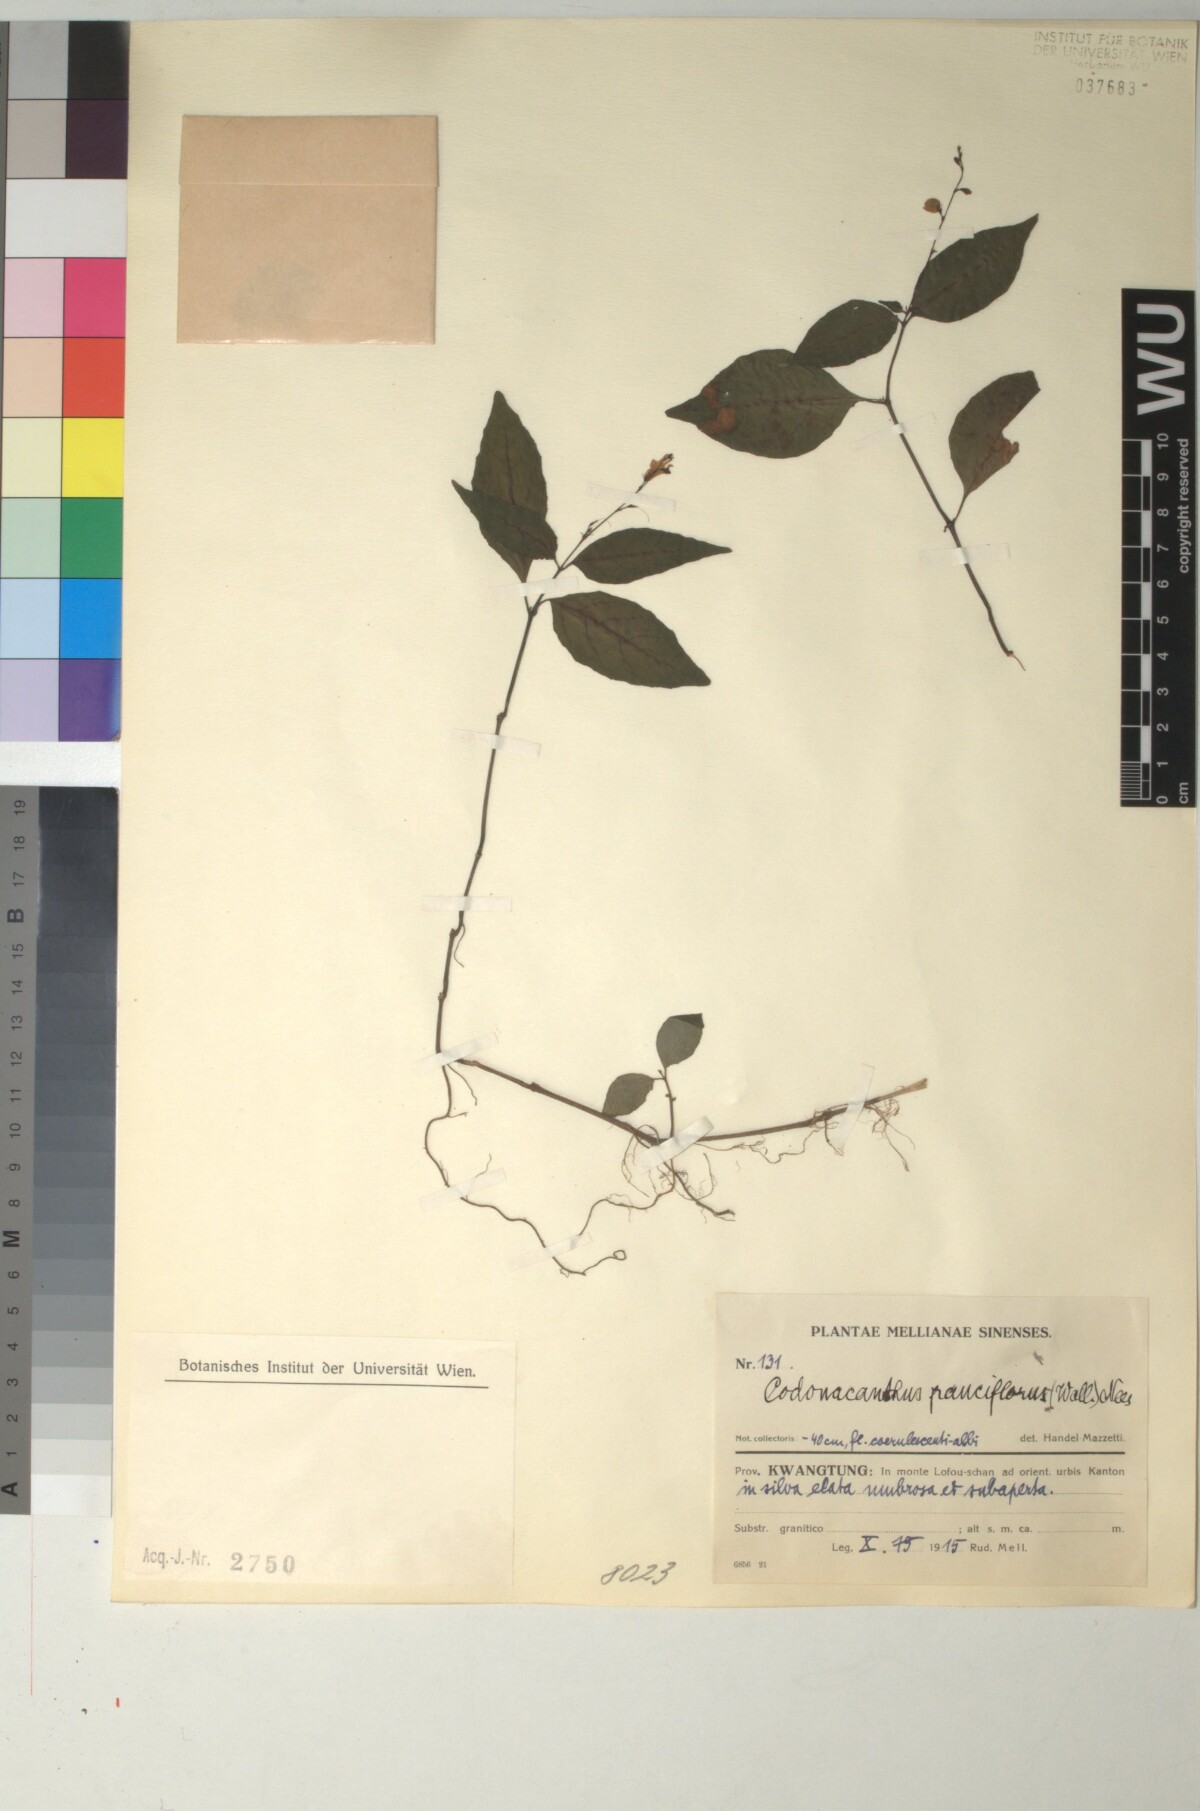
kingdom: Plantae
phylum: Tracheophyta
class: Magnoliopsida
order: Lamiales
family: Acanthaceae
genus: Codonacanthus
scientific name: Codonacanthus pauciflorus
